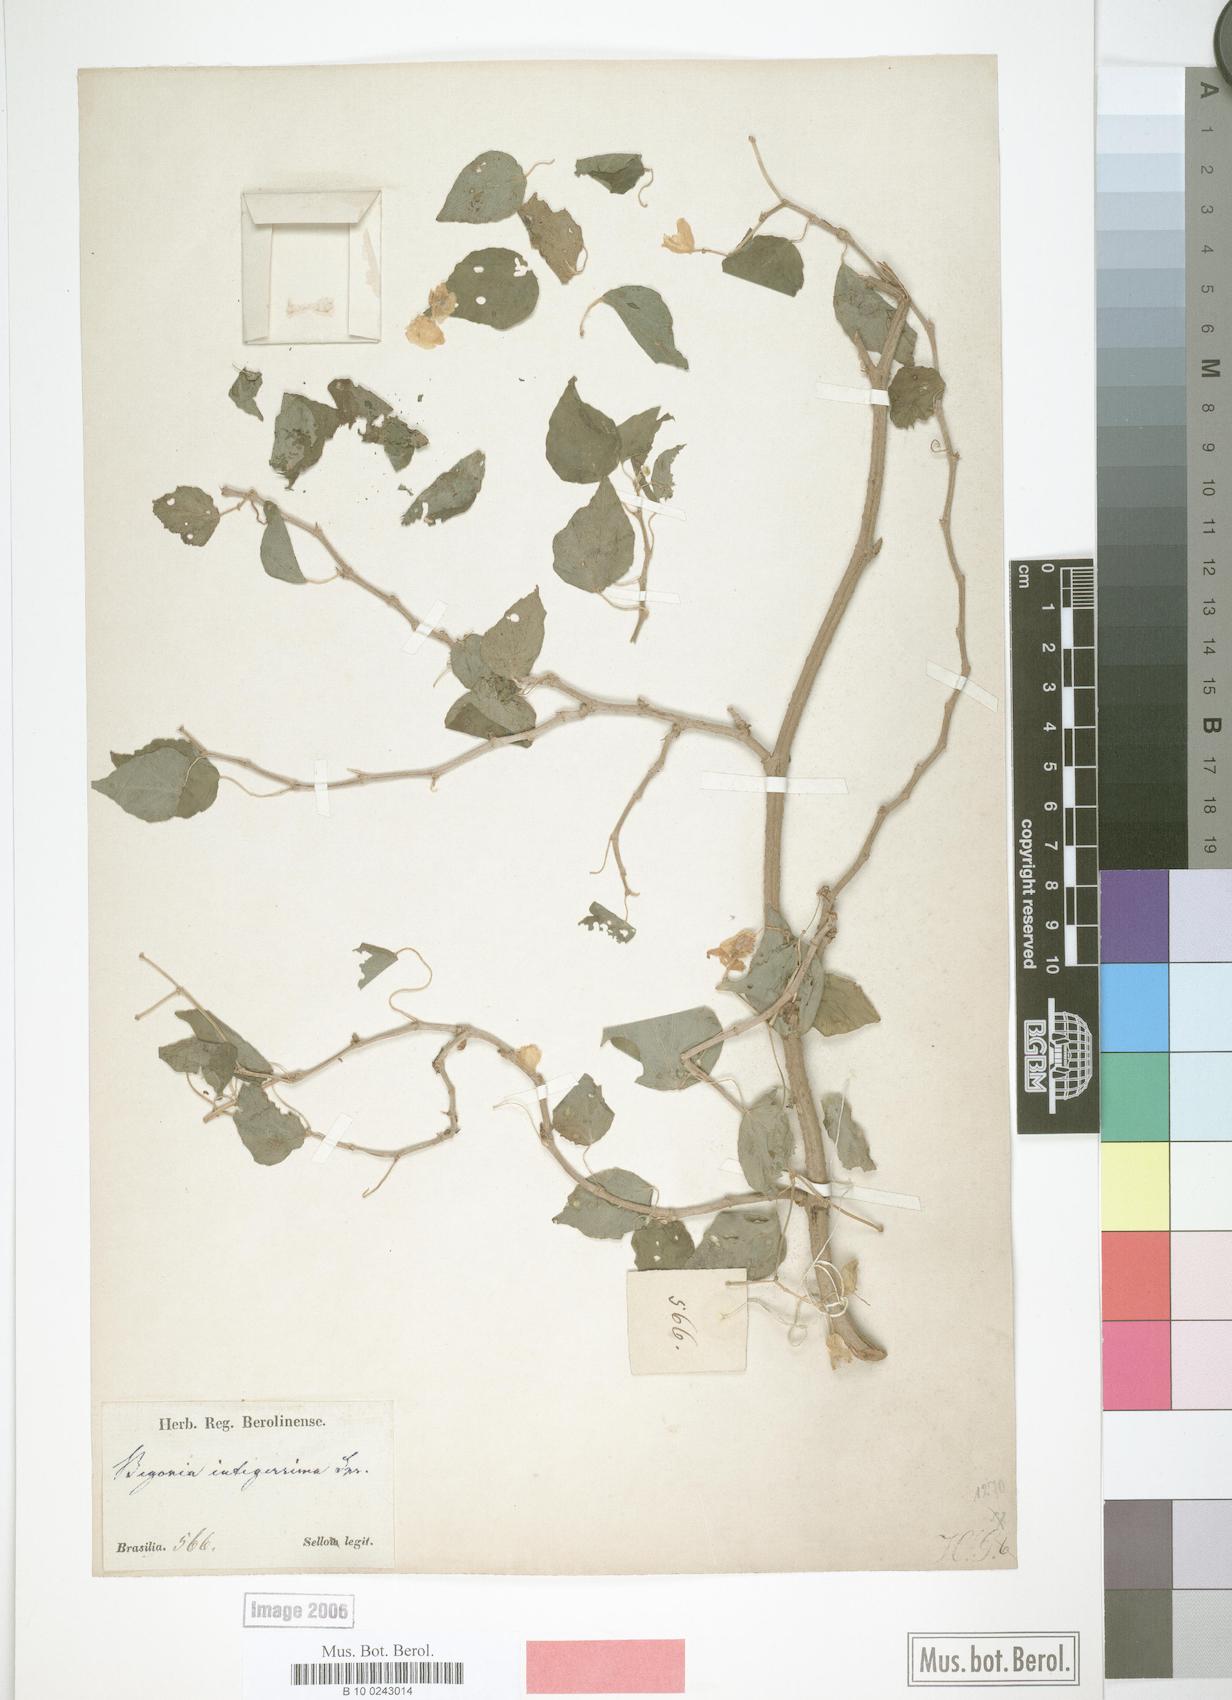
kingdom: Plantae
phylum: Tracheophyta
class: Magnoliopsida
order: Cucurbitales
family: Begoniaceae
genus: Begonia
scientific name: Begonia integerrima
